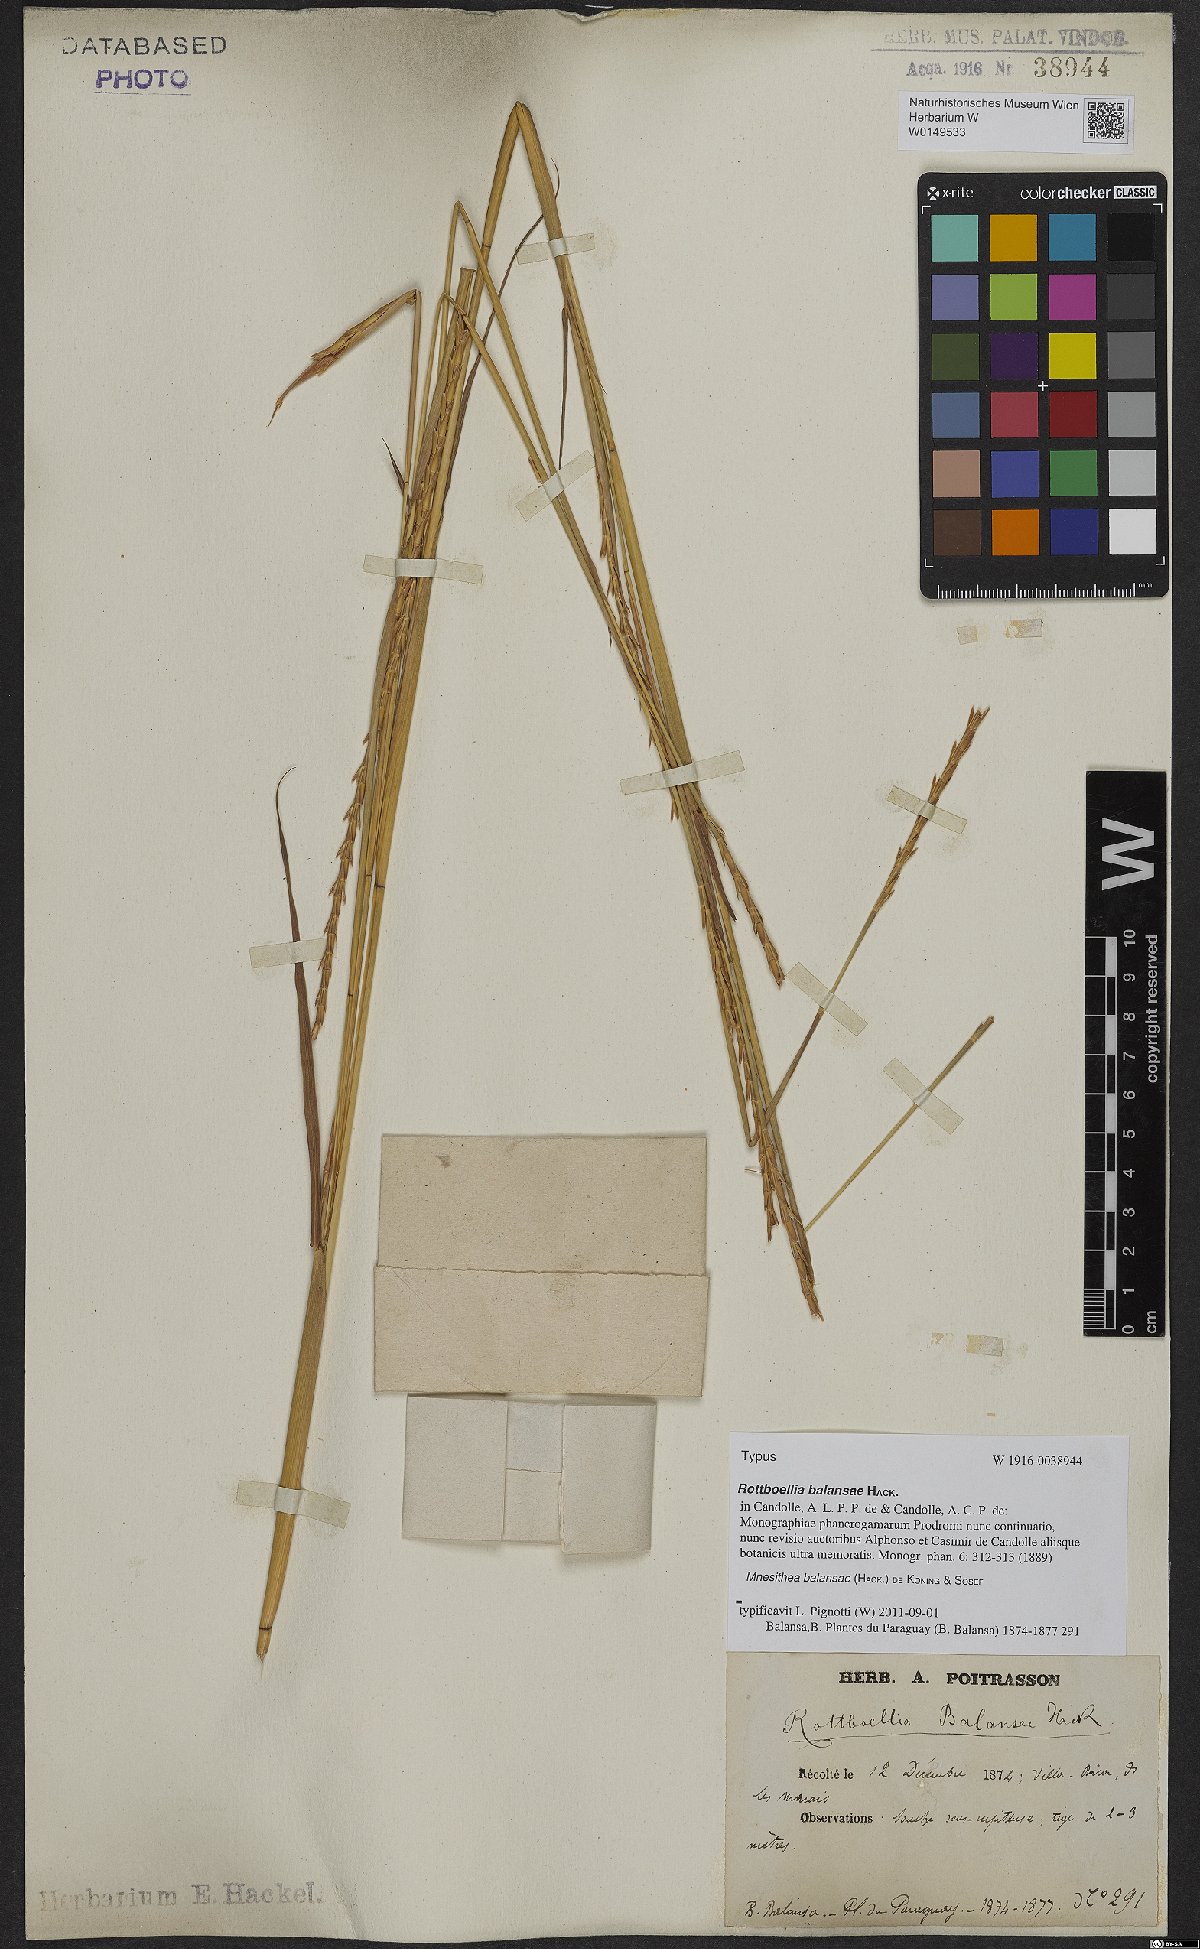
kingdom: Plantae
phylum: Tracheophyta
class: Liliopsida
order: Poales
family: Poaceae
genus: Rottboellia
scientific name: Rottboellia balansae
